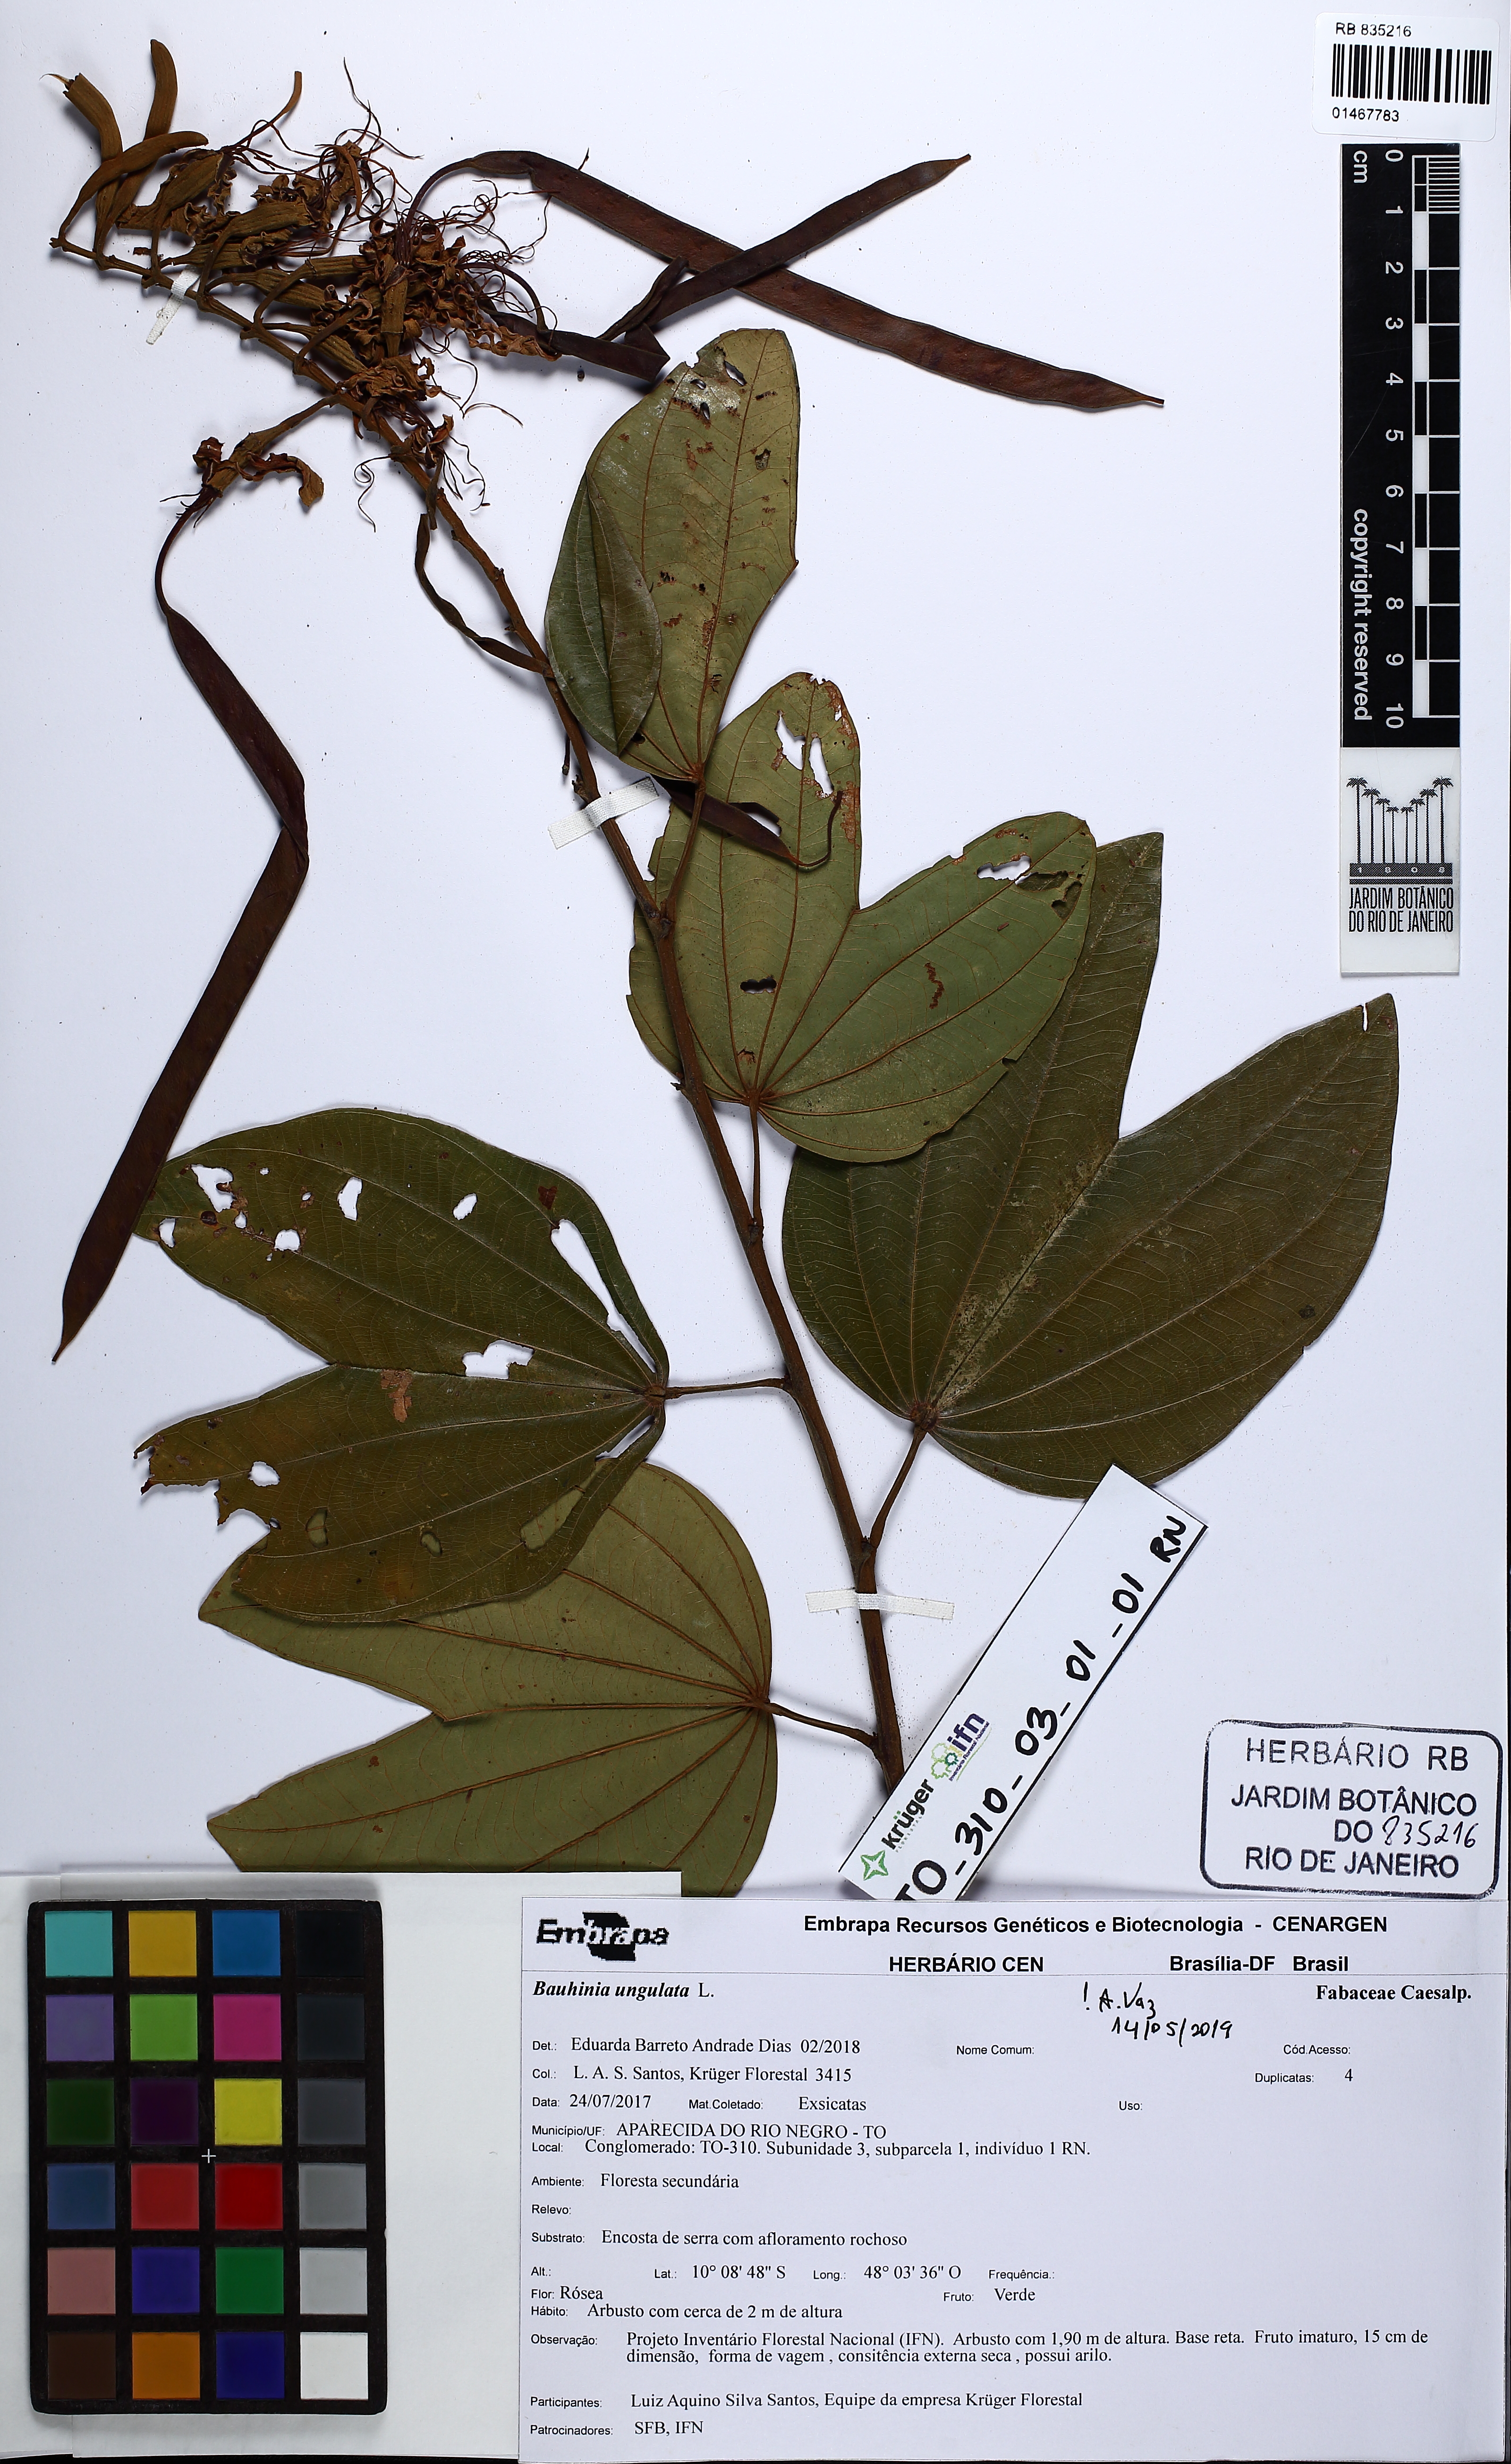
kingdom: Plantae
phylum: Tracheophyta
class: Magnoliopsida
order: Fabales
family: Fabaceae
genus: Bauhinia
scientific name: Bauhinia ungulata
